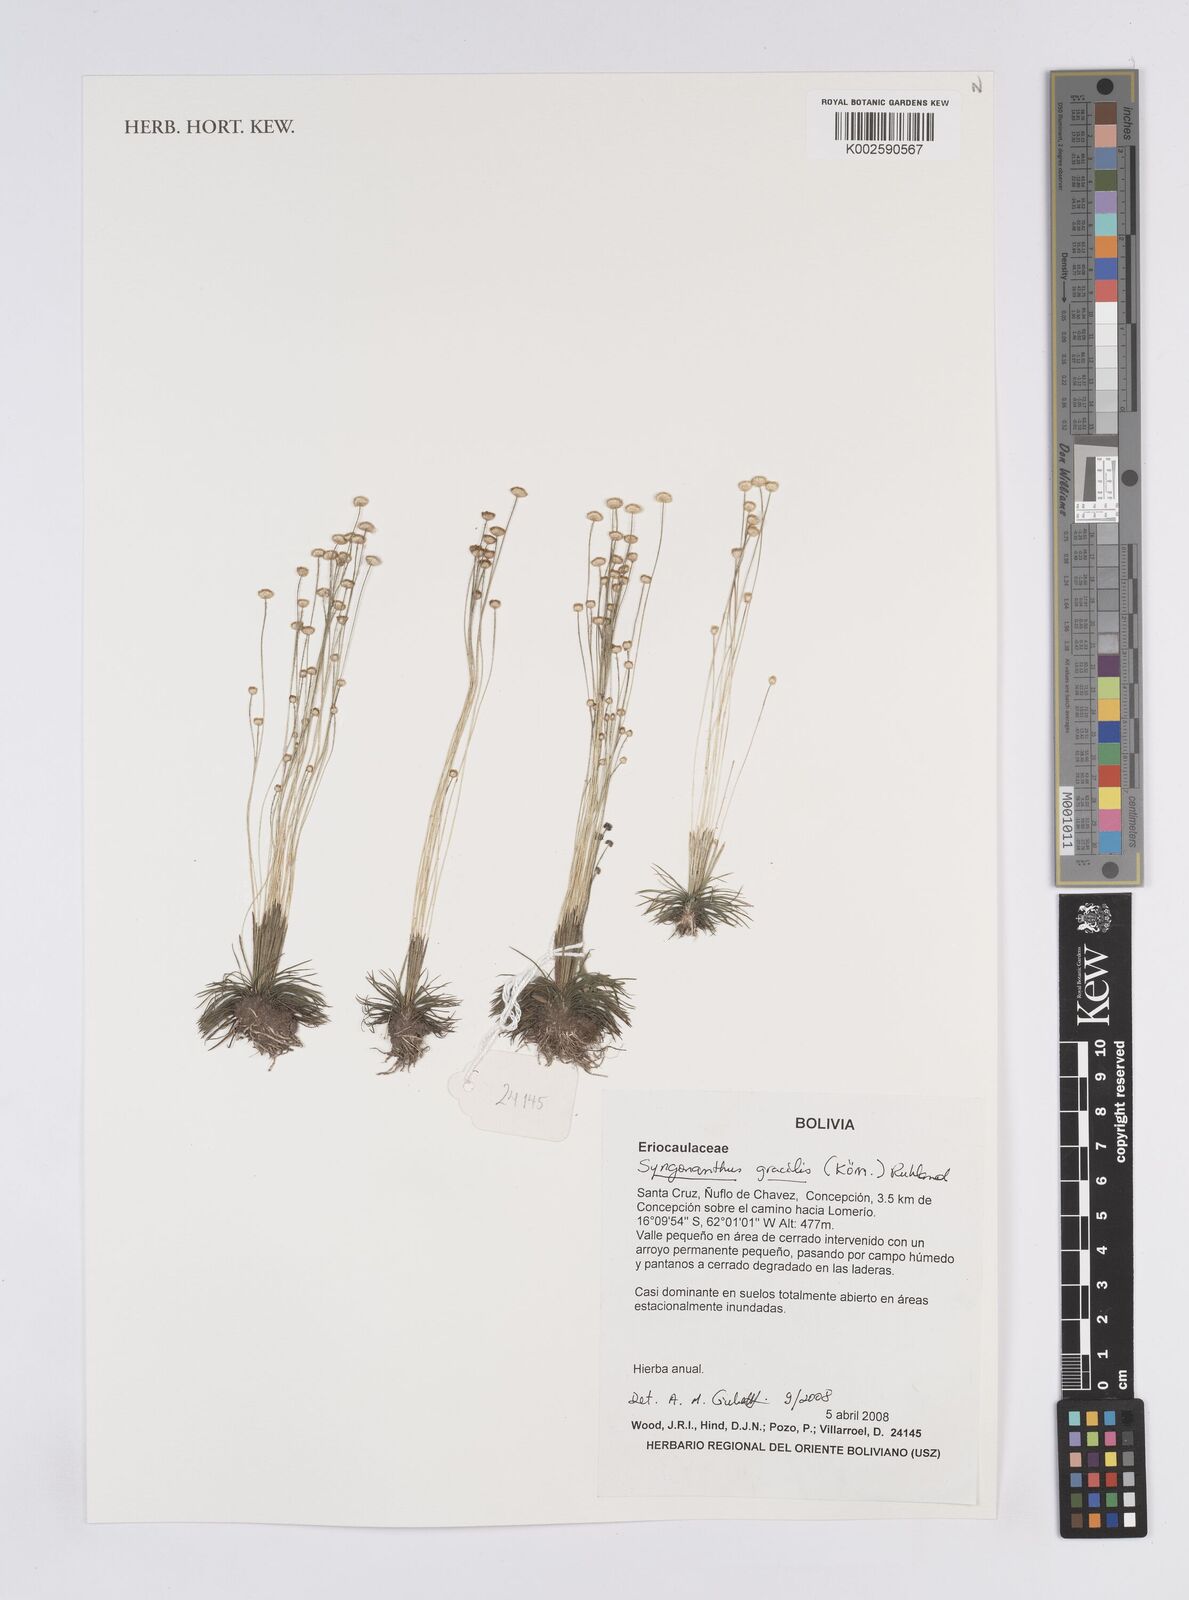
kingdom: Plantae
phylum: Tracheophyta
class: Liliopsida
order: Poales
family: Eriocaulaceae
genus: Syngonanthus
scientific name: Syngonanthus
